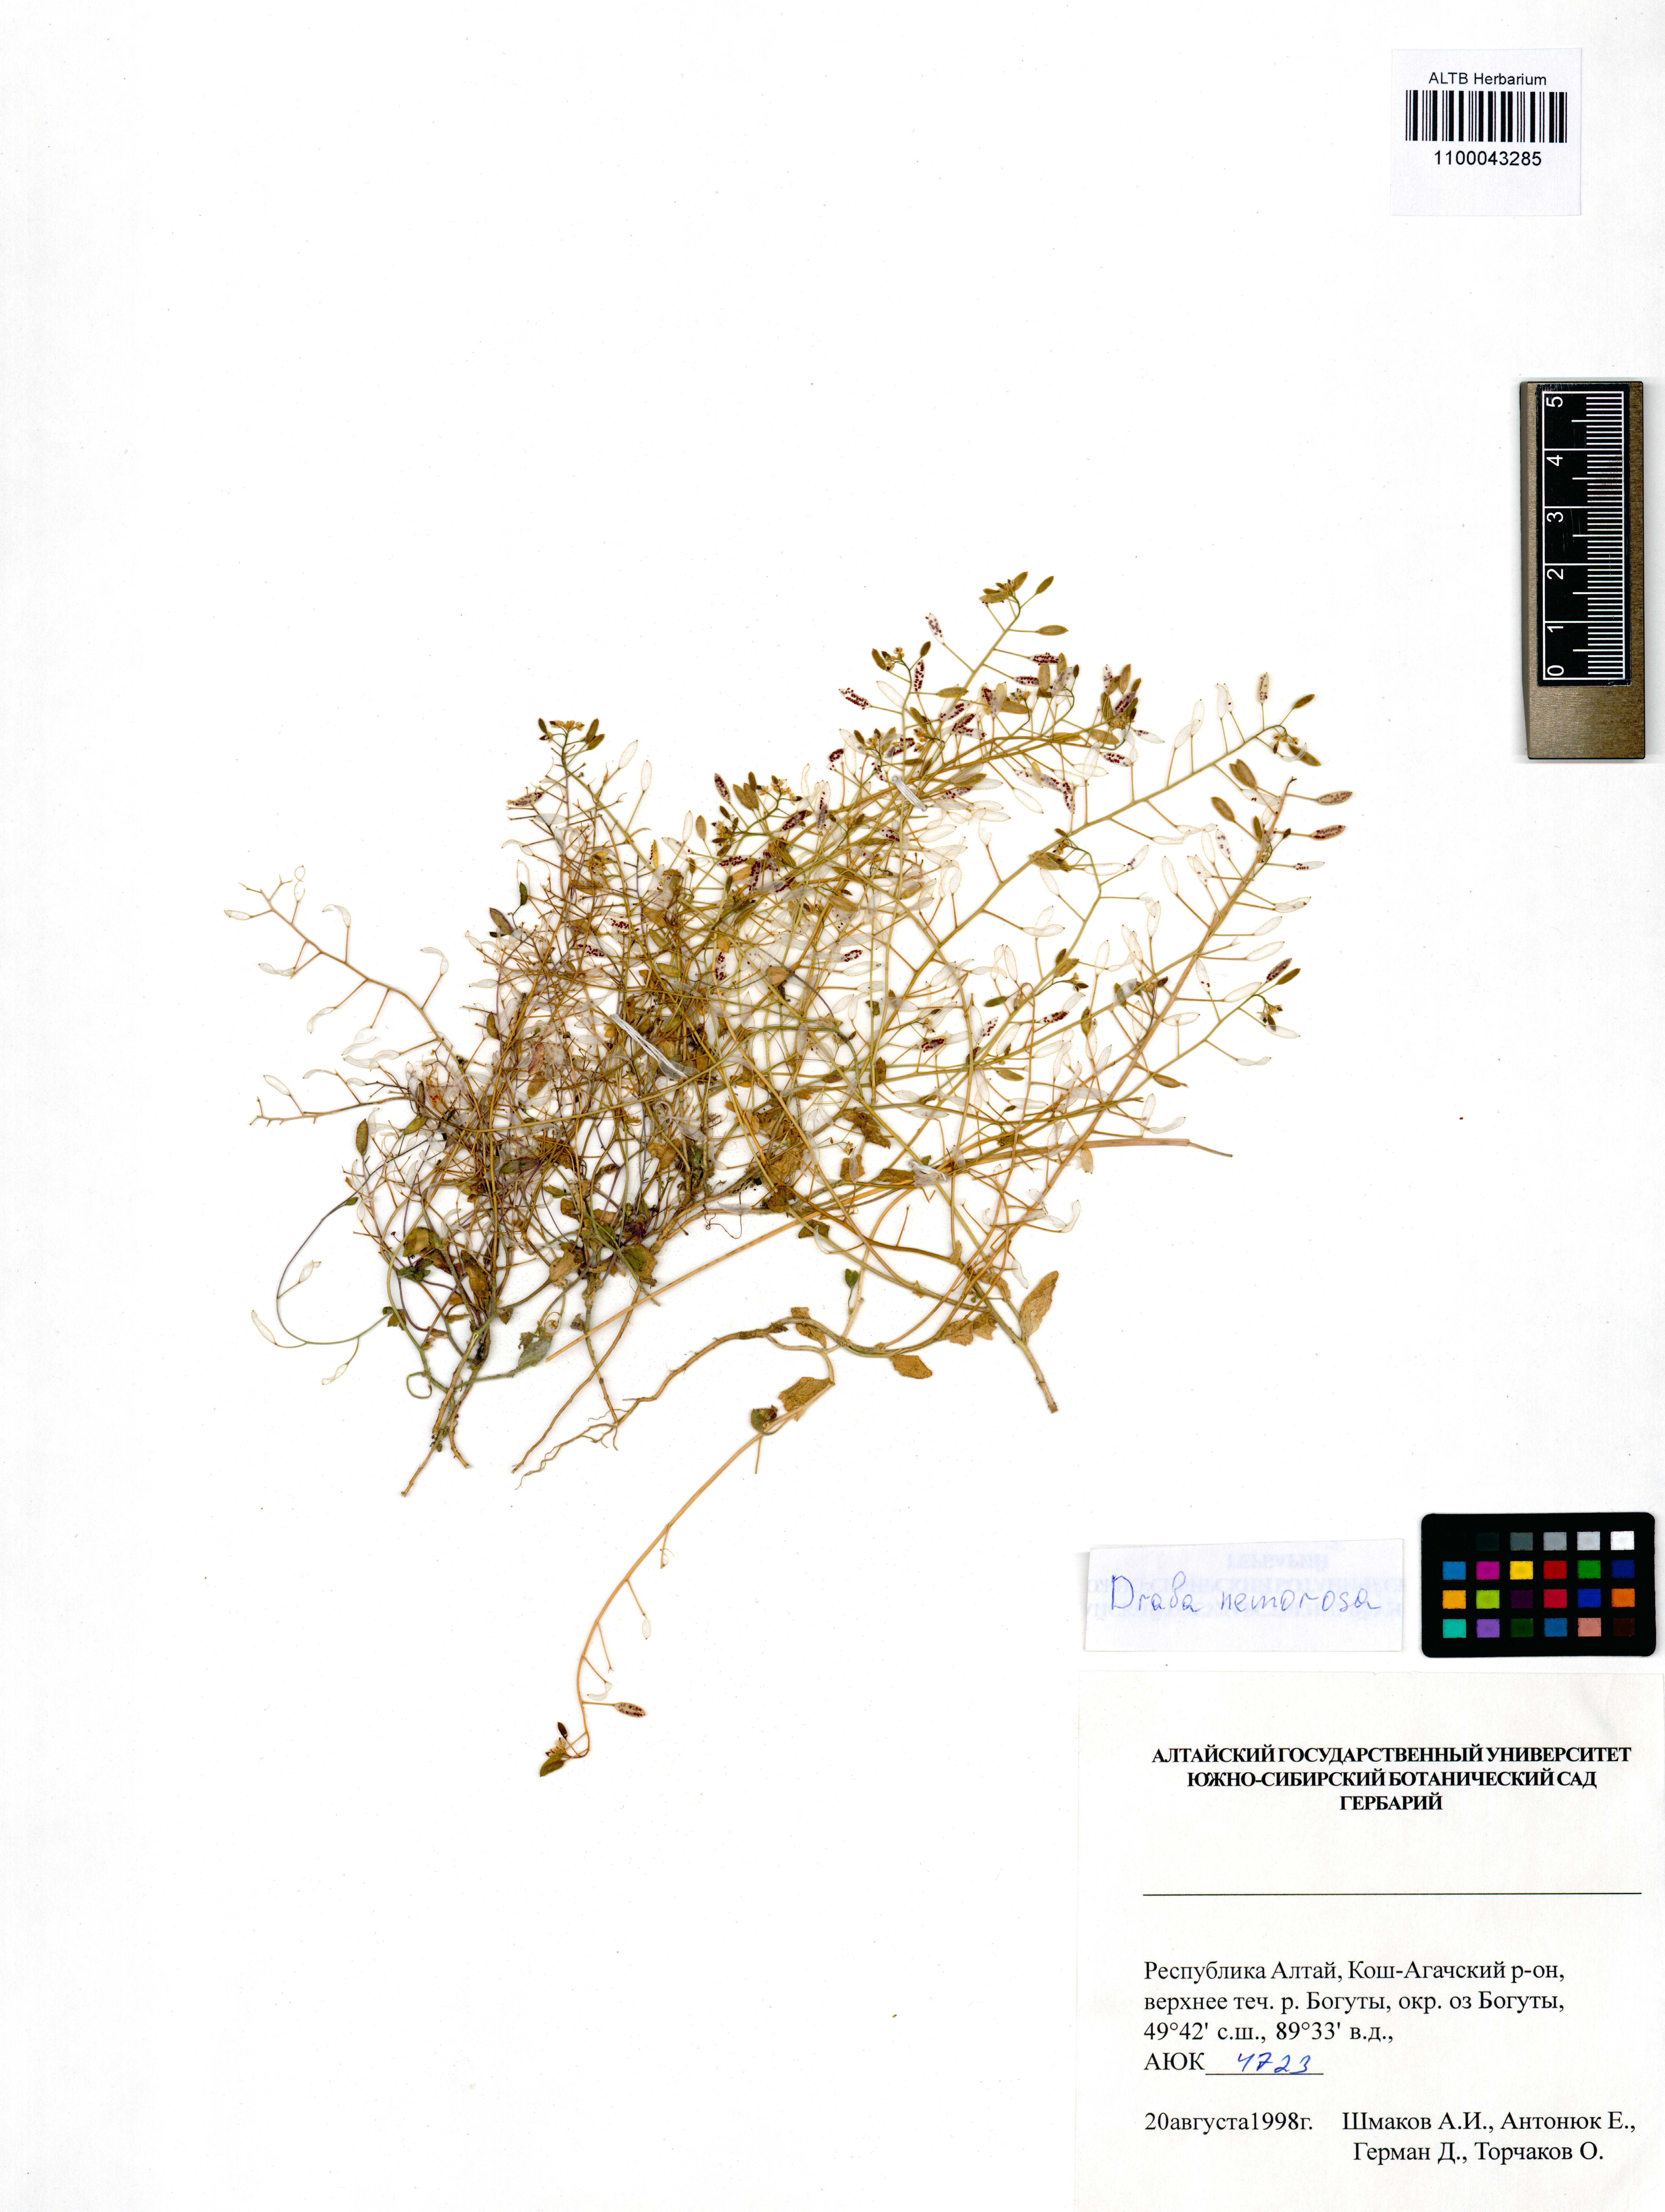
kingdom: Plantae
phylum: Tracheophyta
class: Magnoliopsida
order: Brassicales
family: Brassicaceae
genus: Draba
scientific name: Draba nemorosa
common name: Wood whitlow-grass
